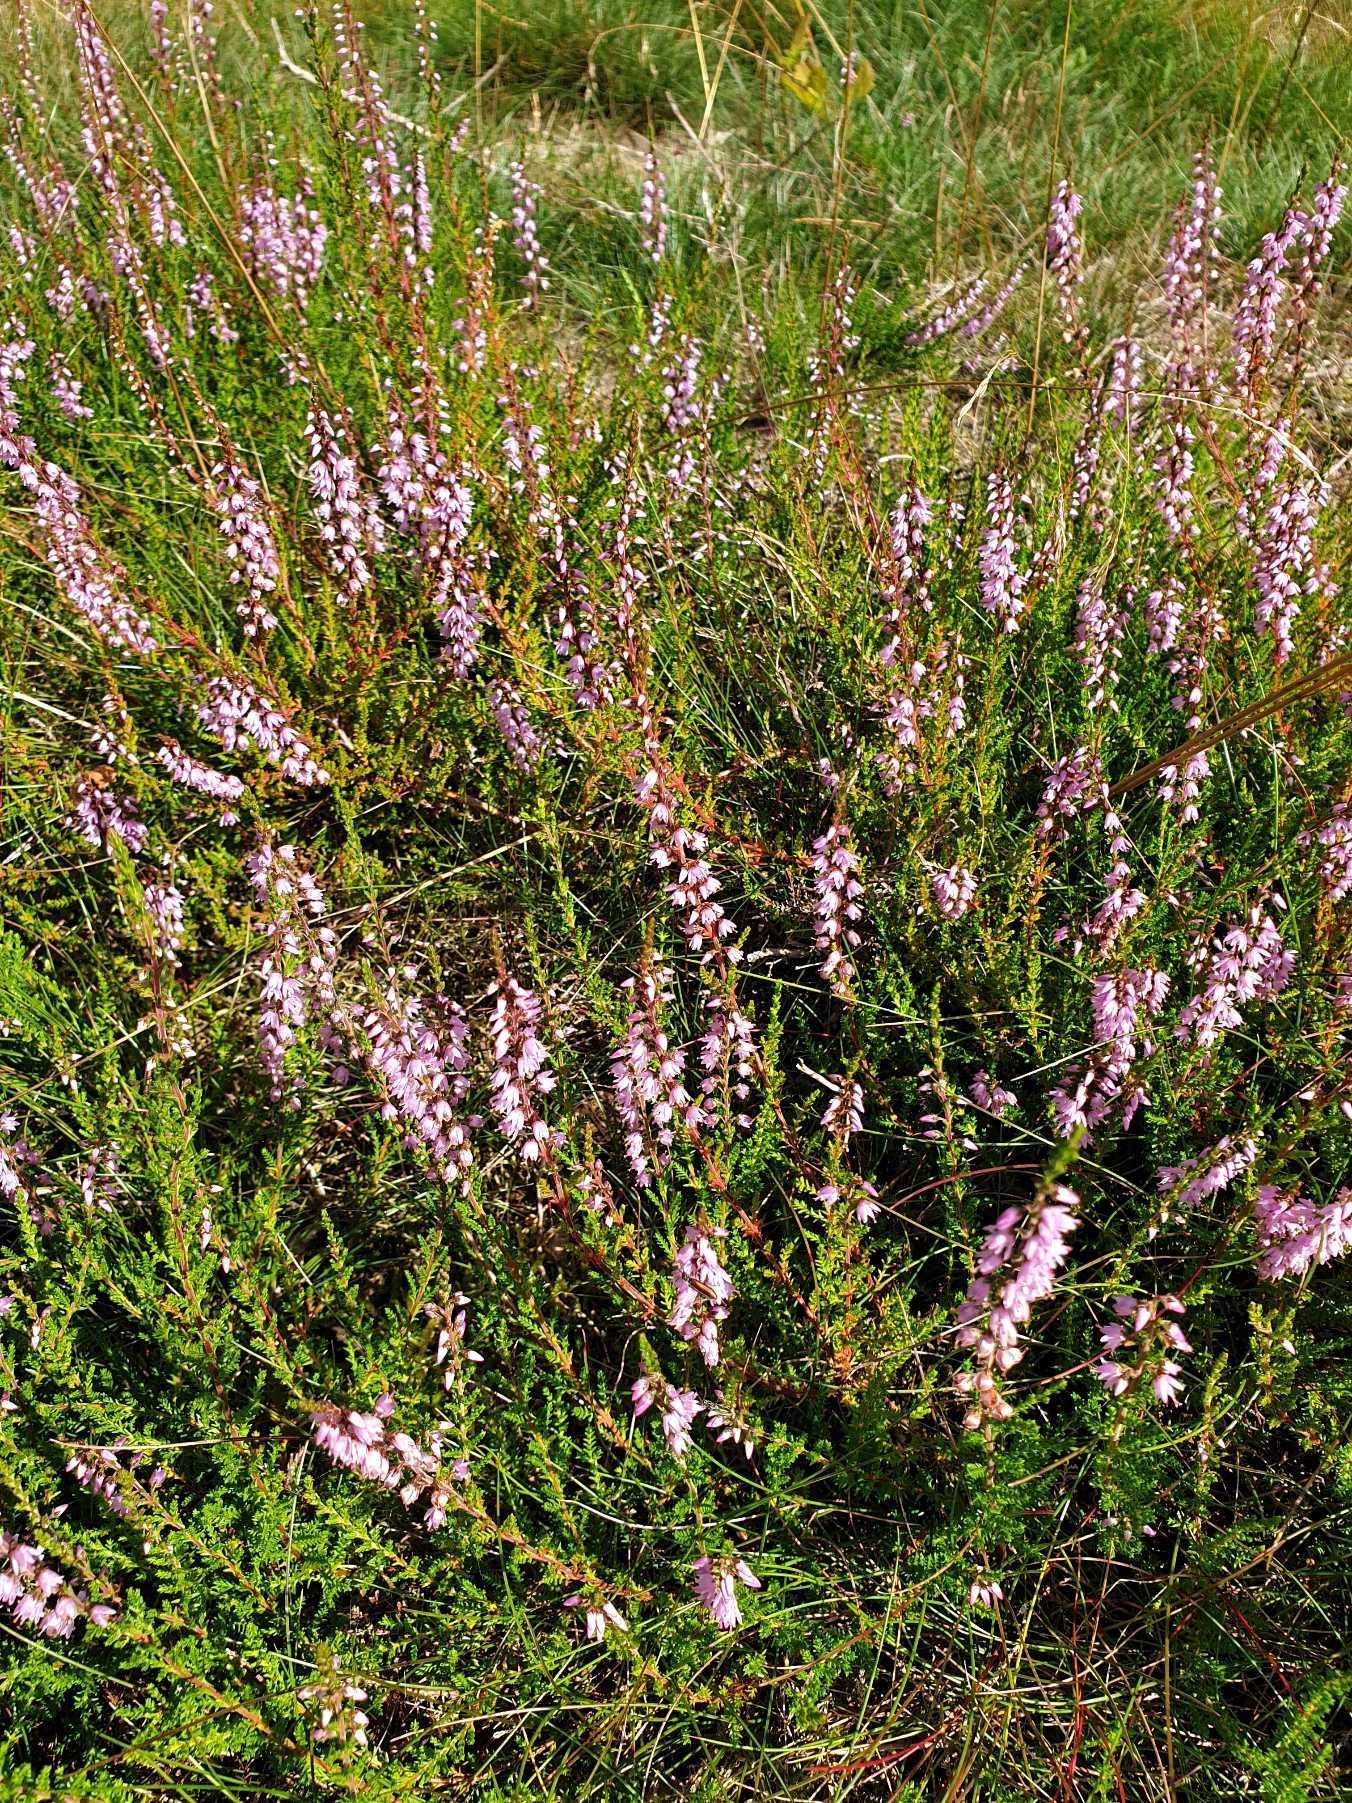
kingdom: Plantae
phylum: Tracheophyta
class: Magnoliopsida
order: Ericales
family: Ericaceae
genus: Calluna
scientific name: Calluna vulgaris
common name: Hedelyng
